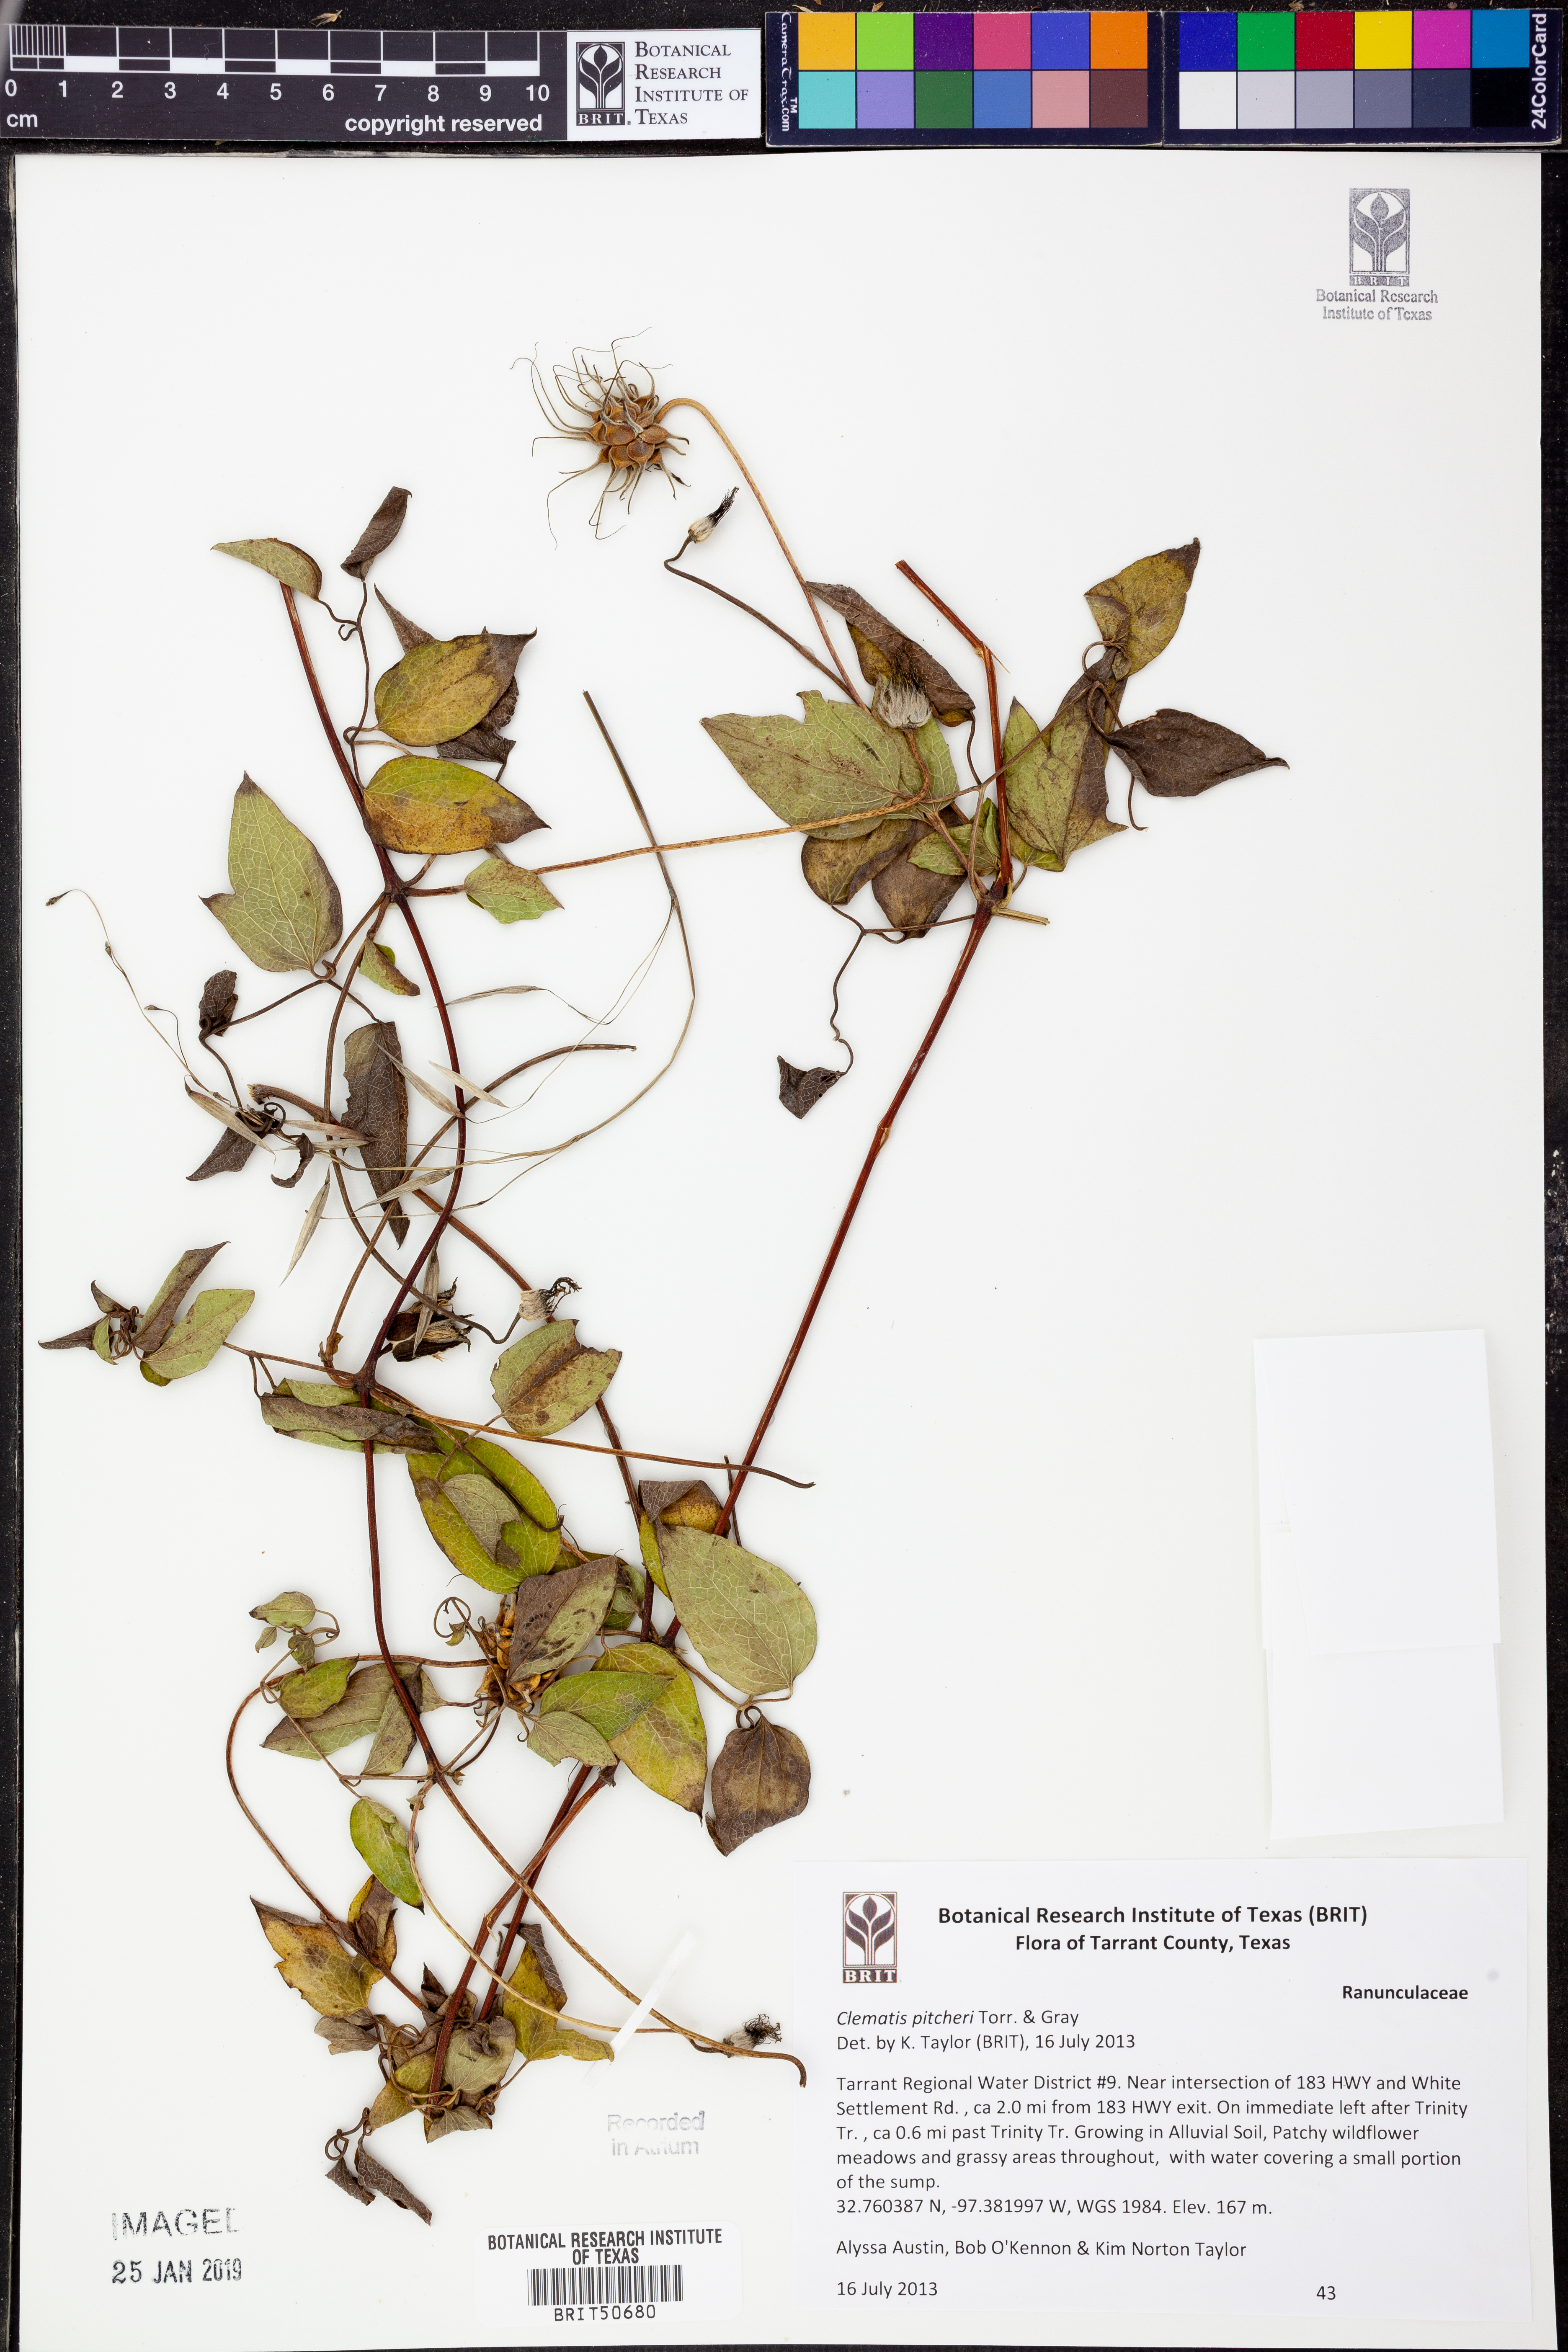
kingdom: Plantae
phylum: Tracheophyta
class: Magnoliopsida
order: Ranunculales
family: Ranunculaceae
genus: Clematis
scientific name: Clematis pitcheri
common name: Bellflower clematis
